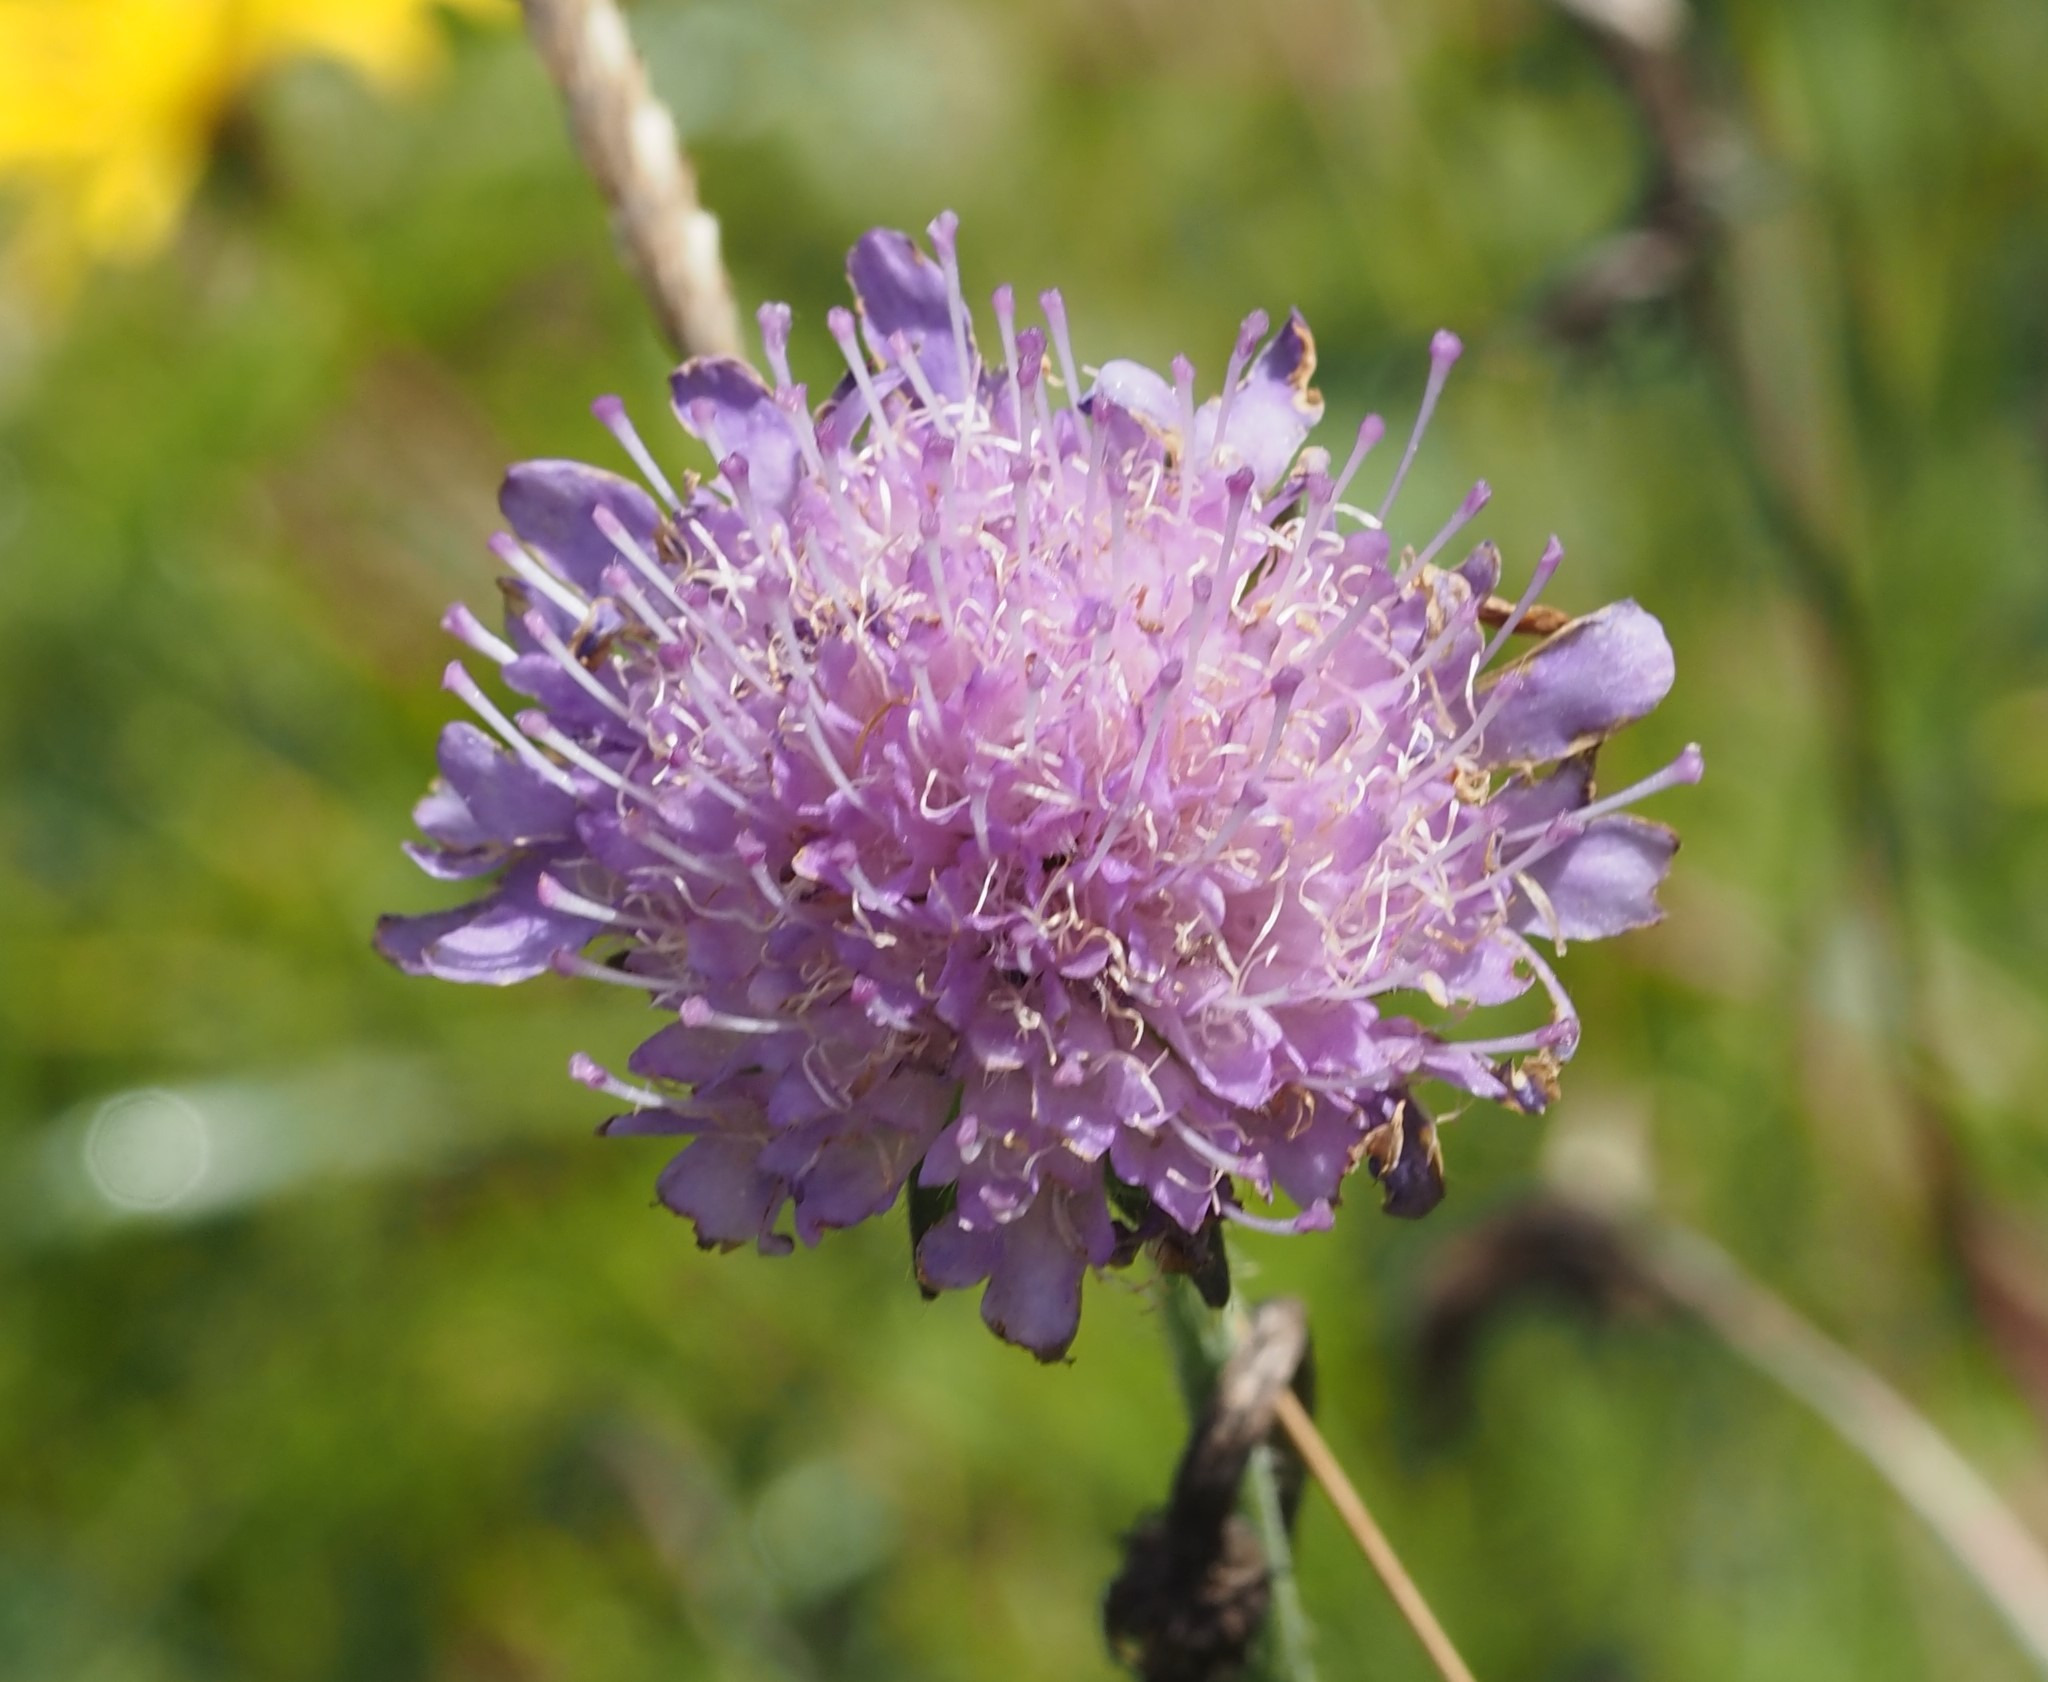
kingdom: Plantae
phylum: Tracheophyta
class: Magnoliopsida
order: Dipsacales
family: Caprifoliaceae
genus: Knautia
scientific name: Knautia arvensis
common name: Blåhat
